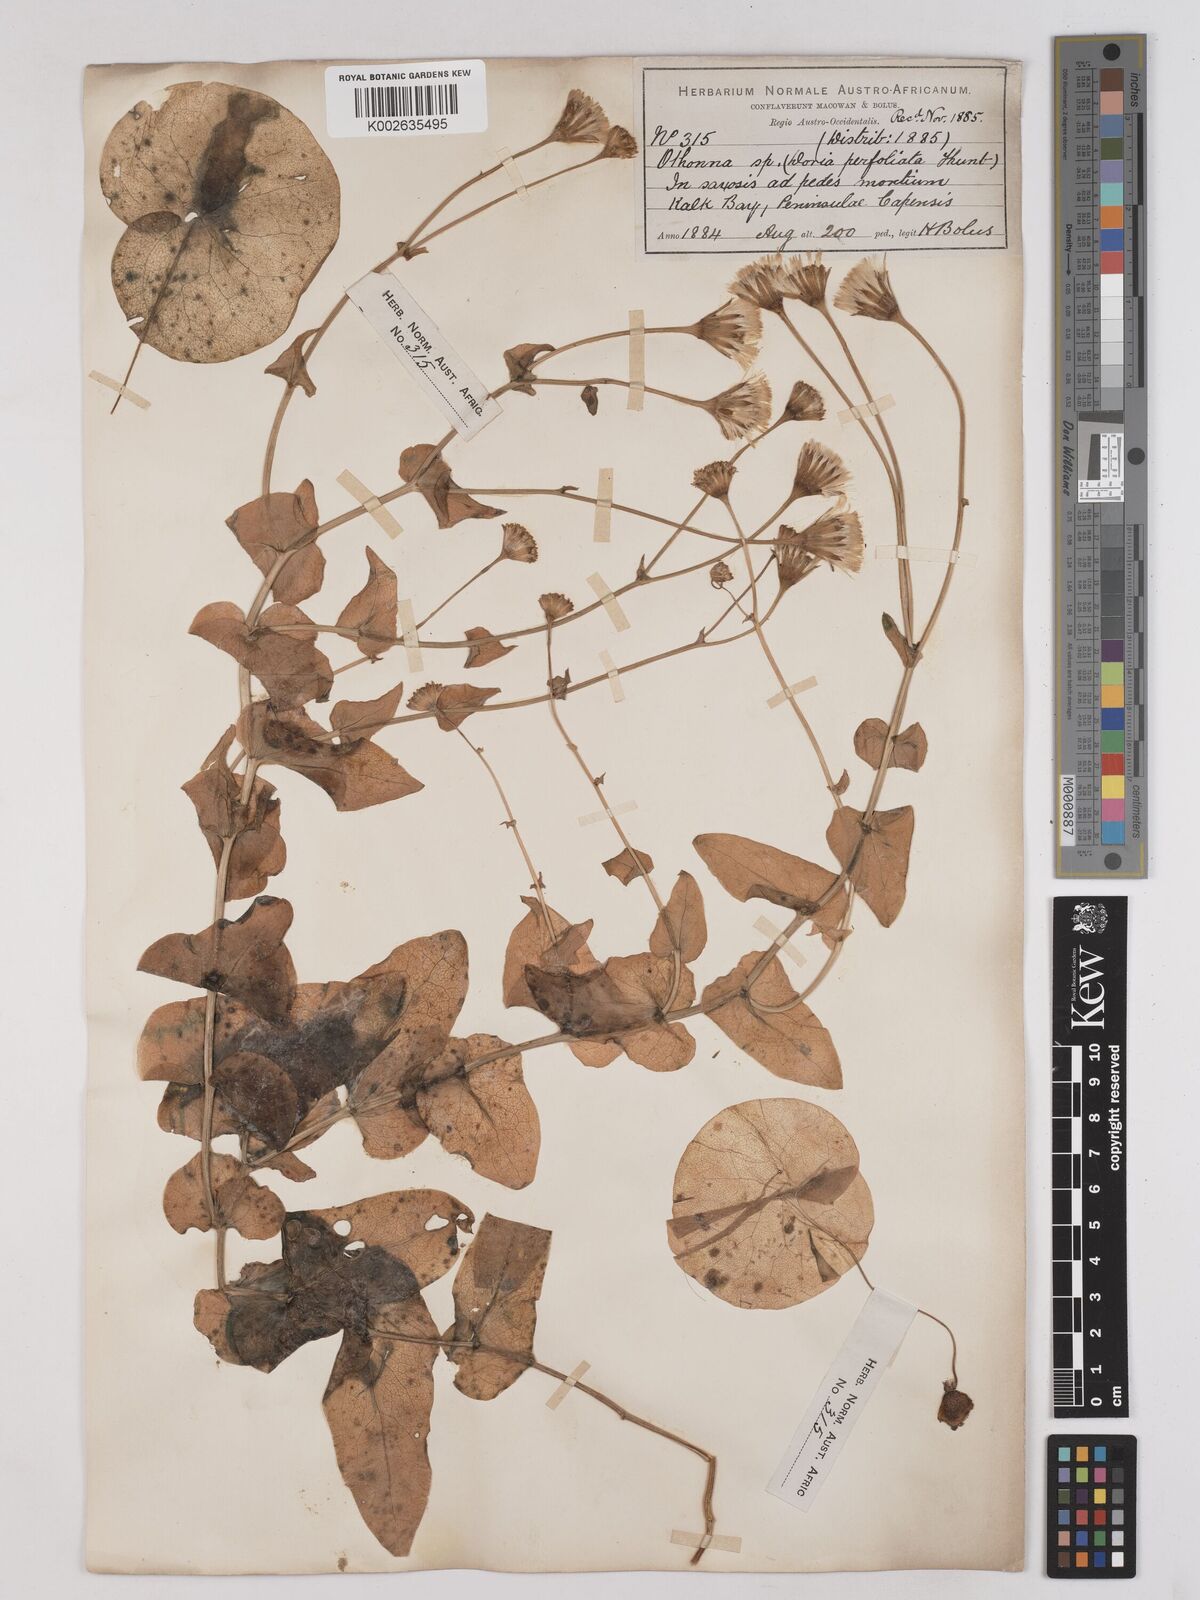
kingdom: Plantae
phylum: Tracheophyta
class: Magnoliopsida
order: Asterales
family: Asteraceae
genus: Othonna
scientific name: Othonna perfoliata
